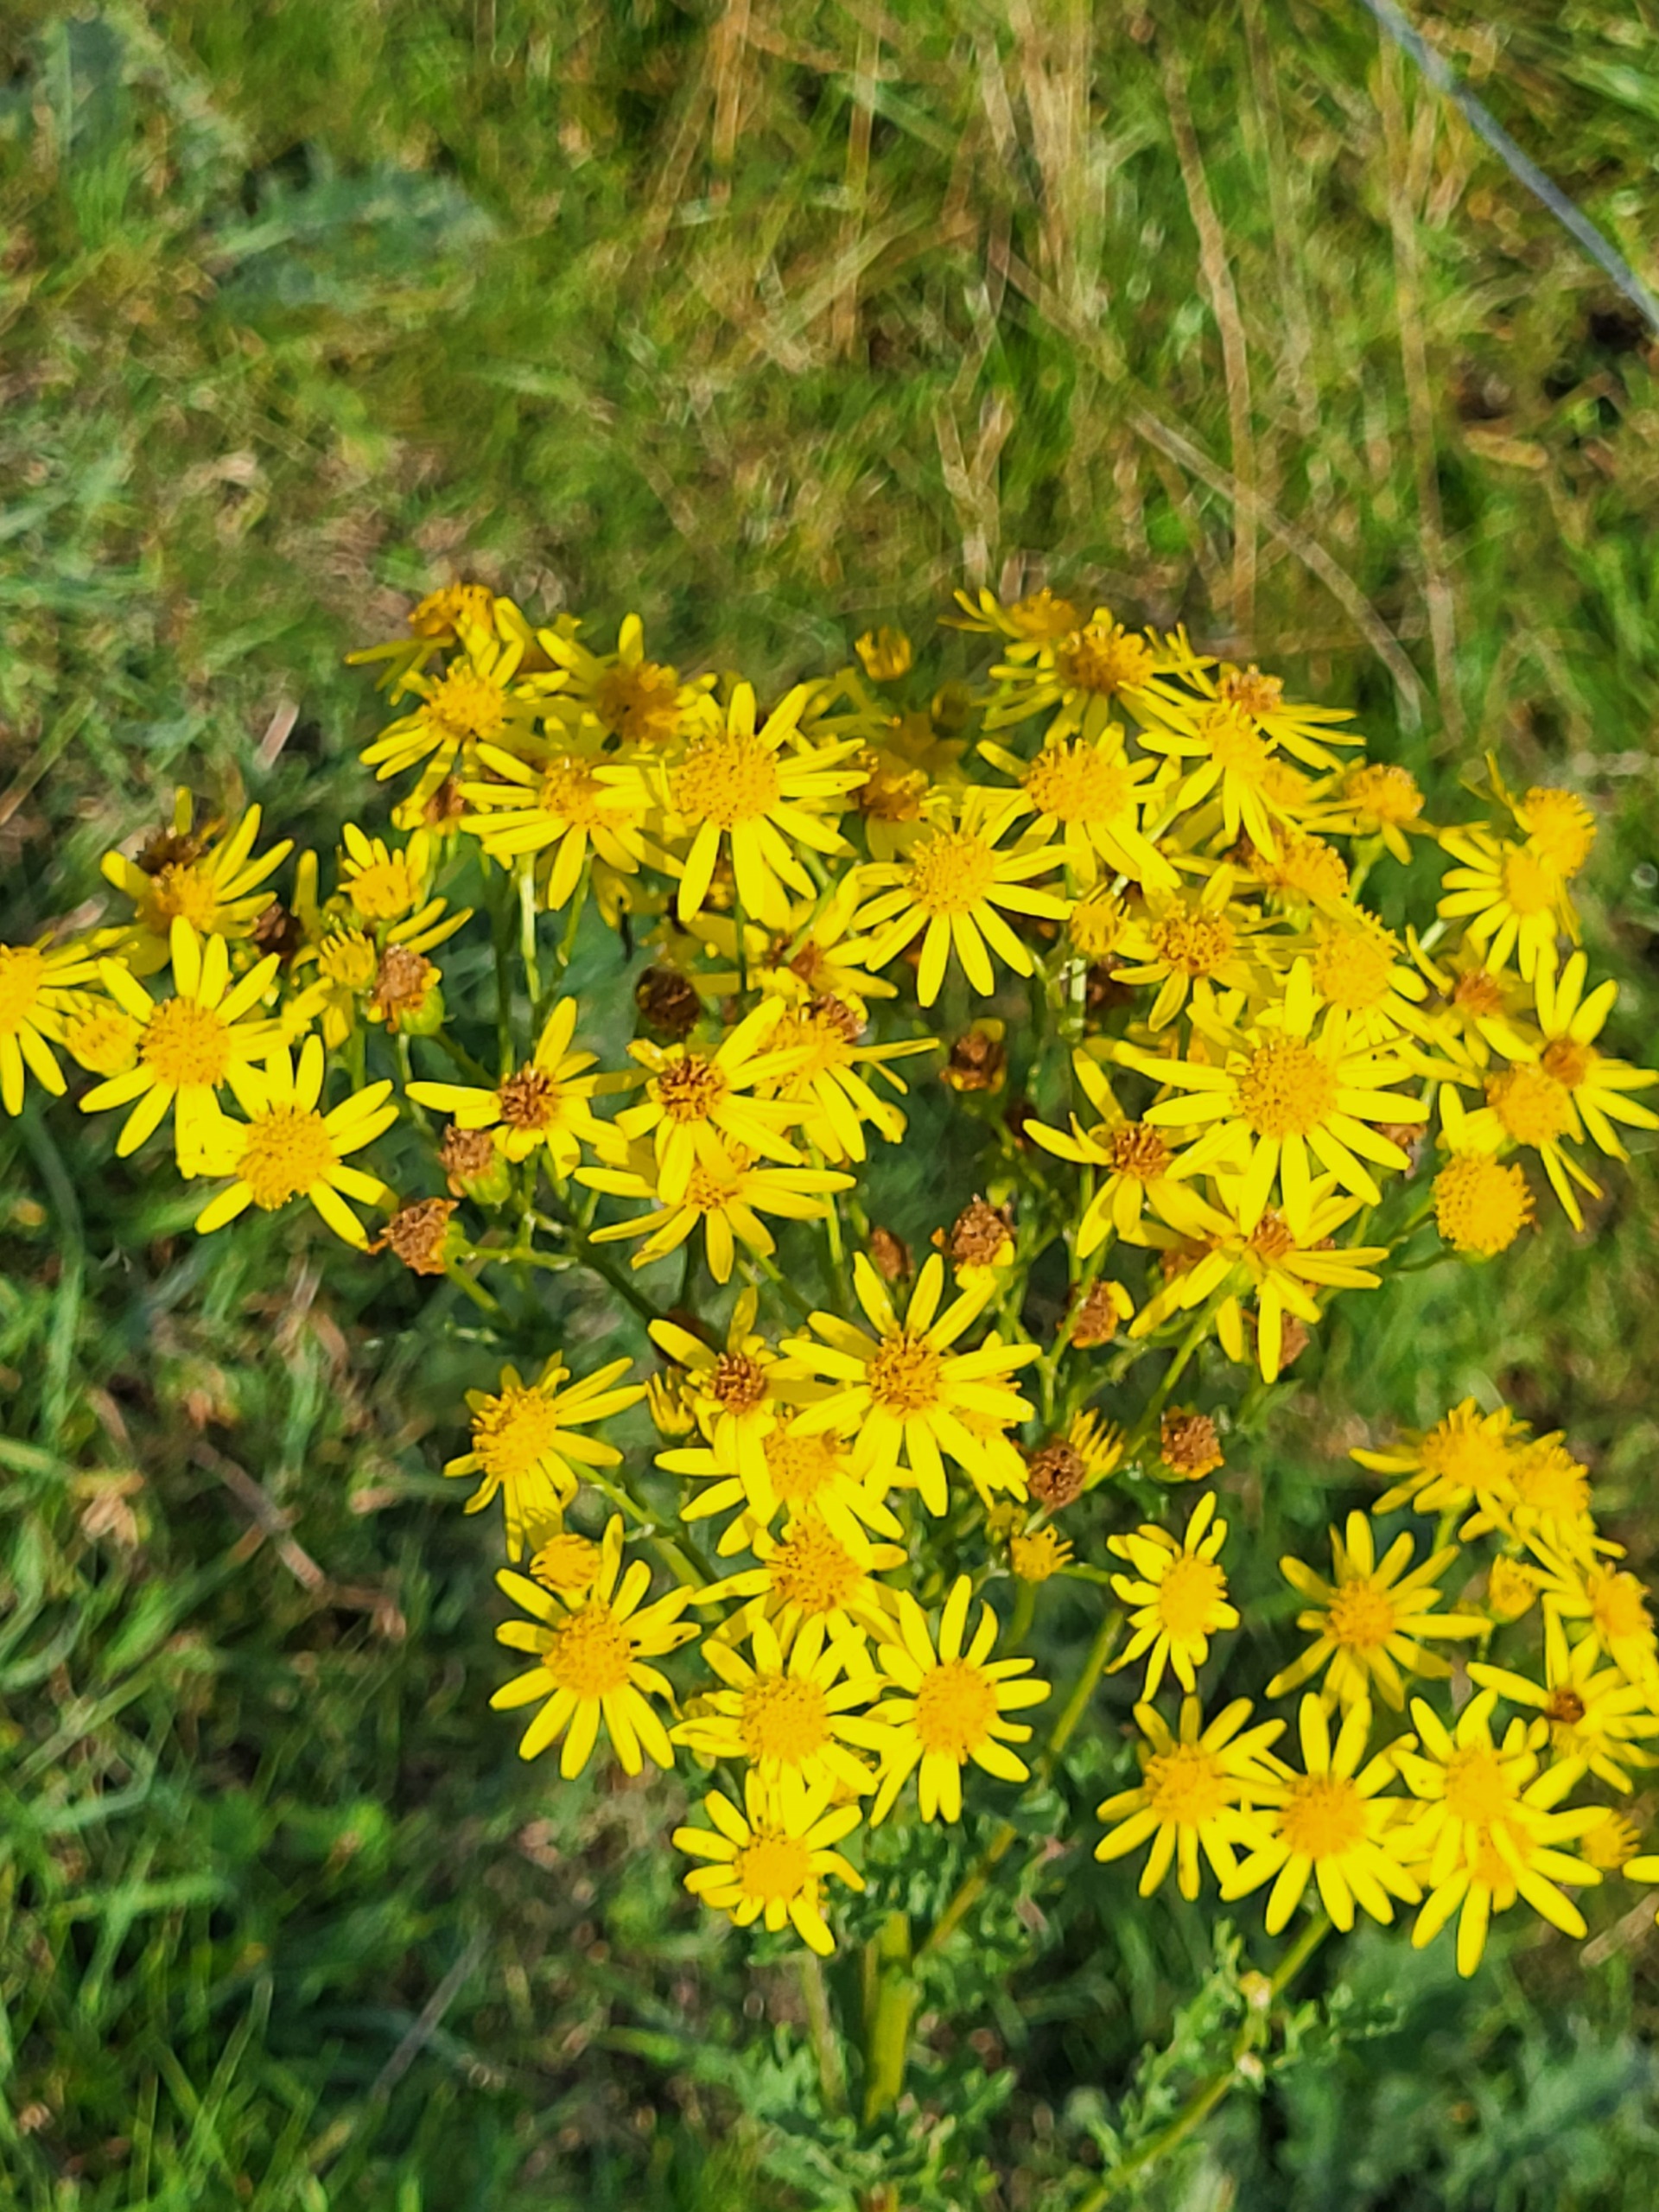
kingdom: Plantae
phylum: Tracheophyta
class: Magnoliopsida
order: Asterales
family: Asteraceae
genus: Jacobaea
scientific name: Jacobaea vulgaris
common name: Eng-brandbæger
